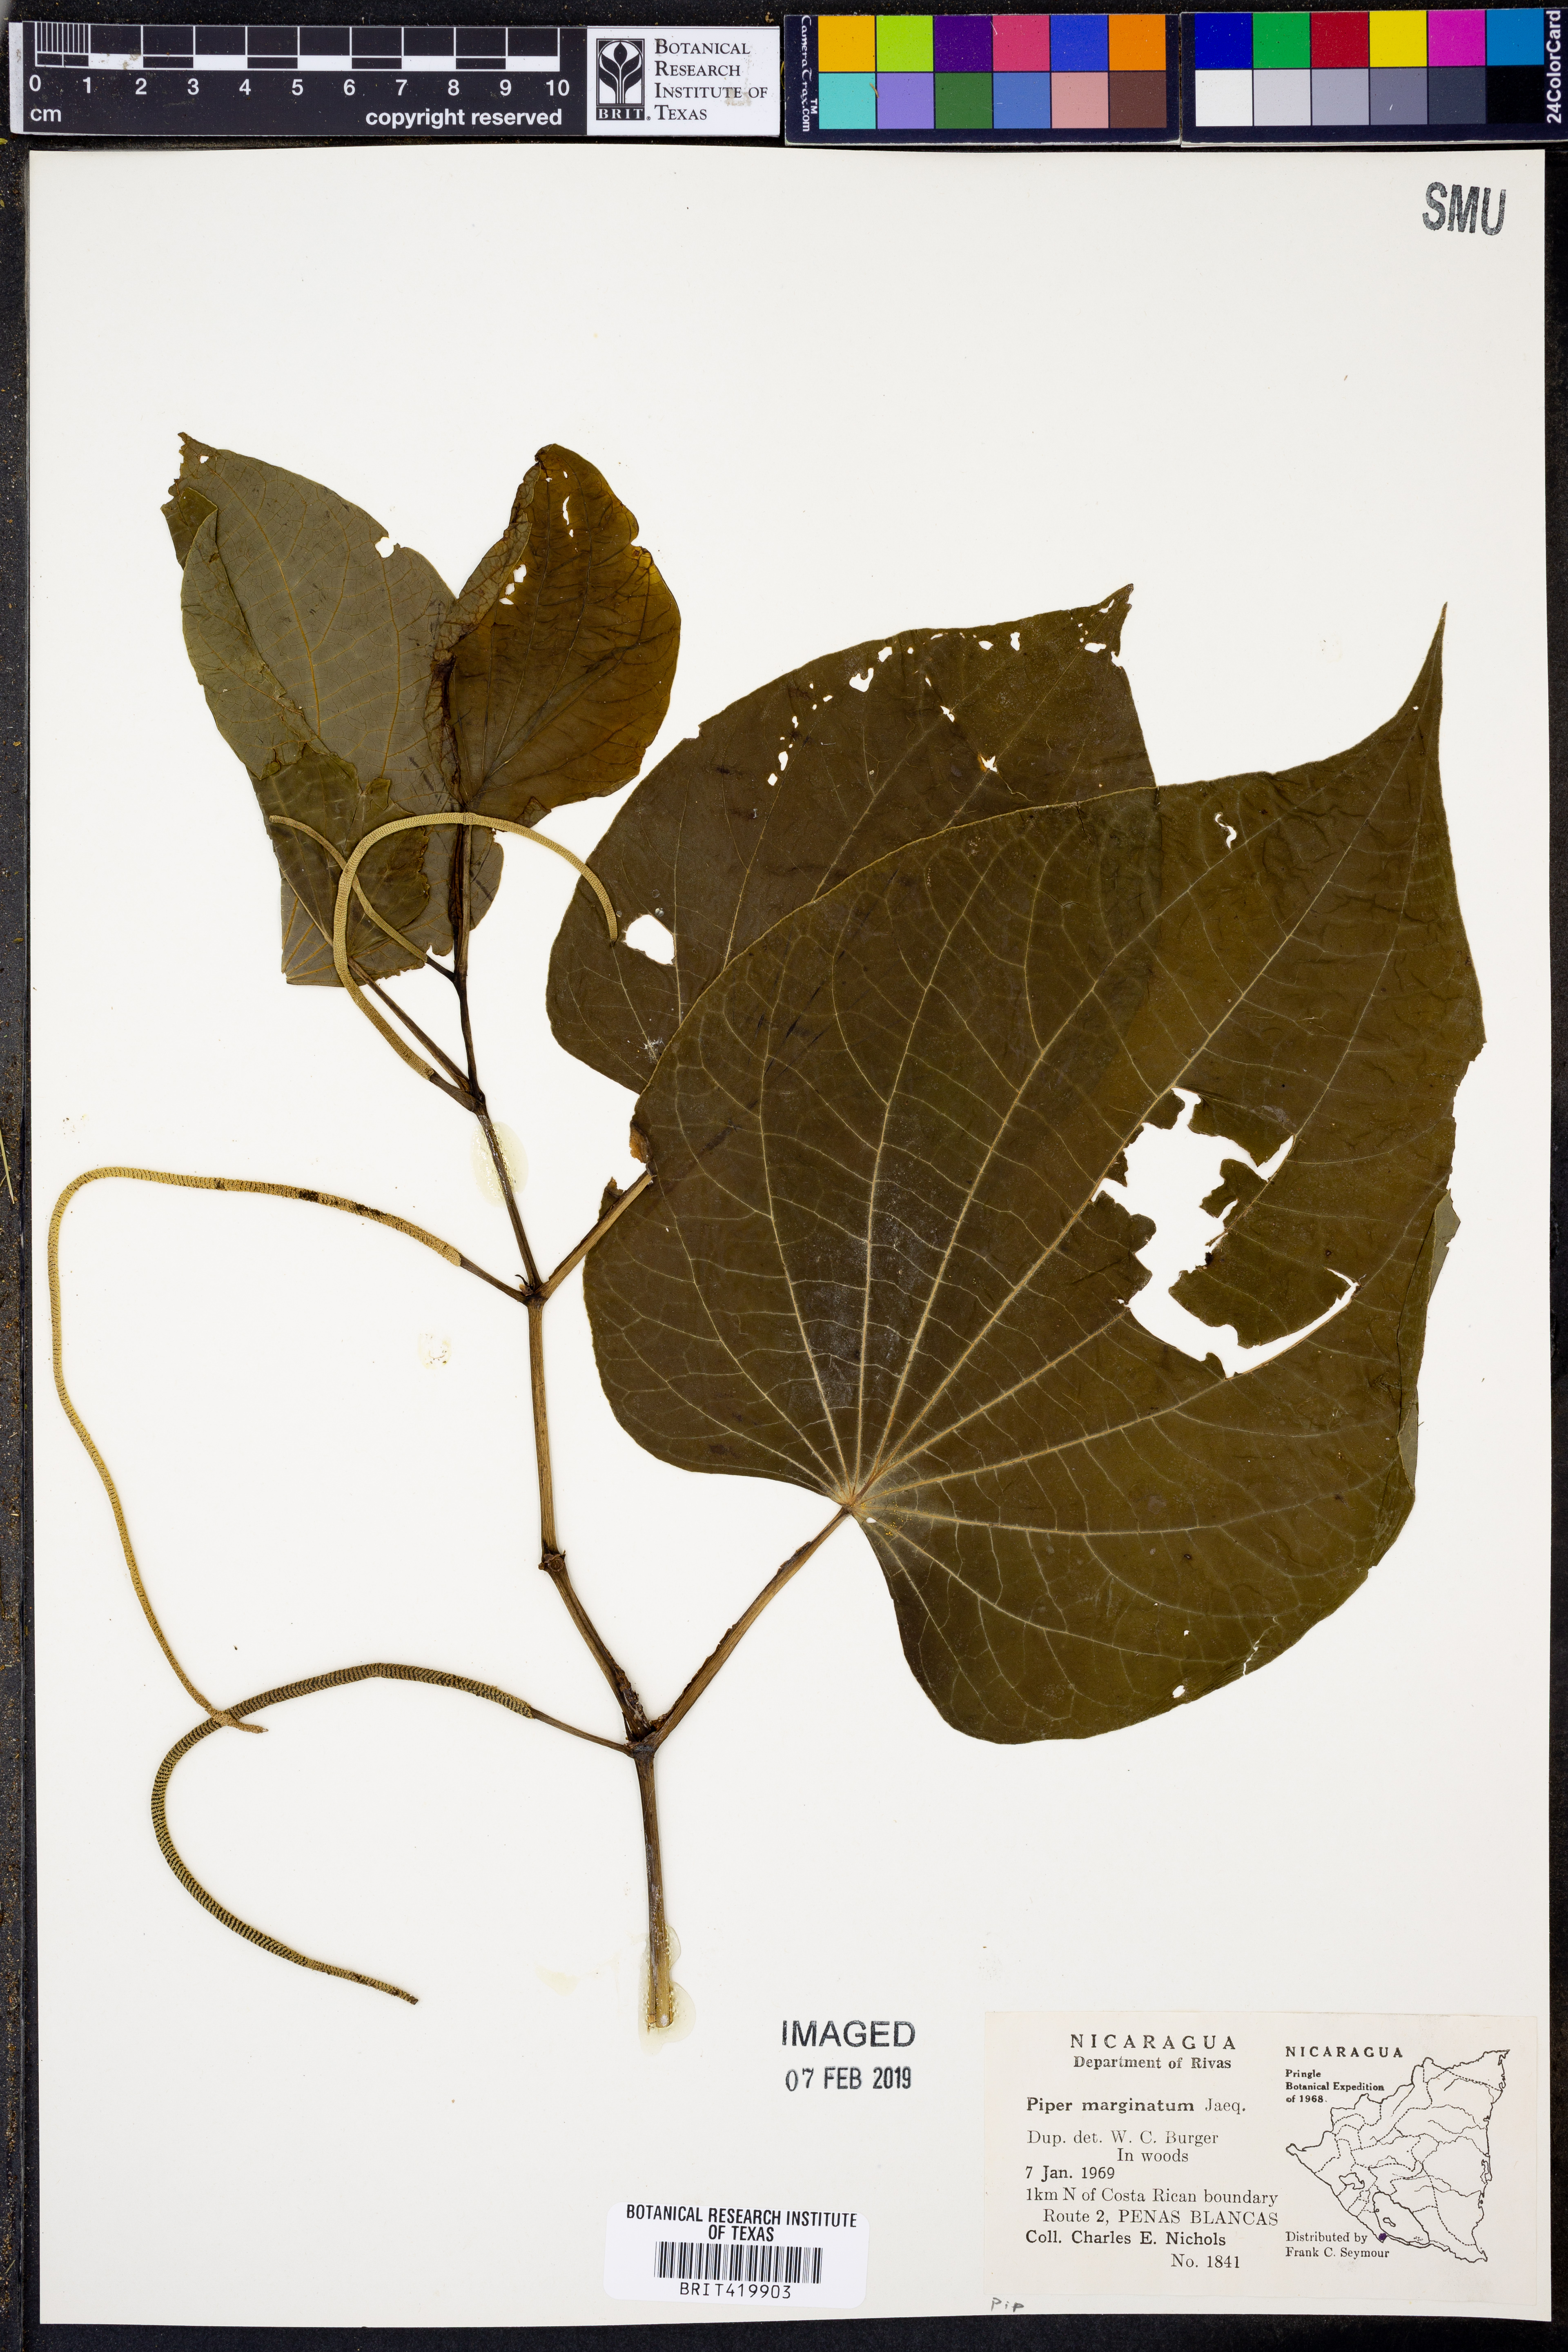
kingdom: Plantae
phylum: Tracheophyta
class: Magnoliopsida
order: Piperales
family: Piperaceae
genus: Piper
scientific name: Piper marginatum
